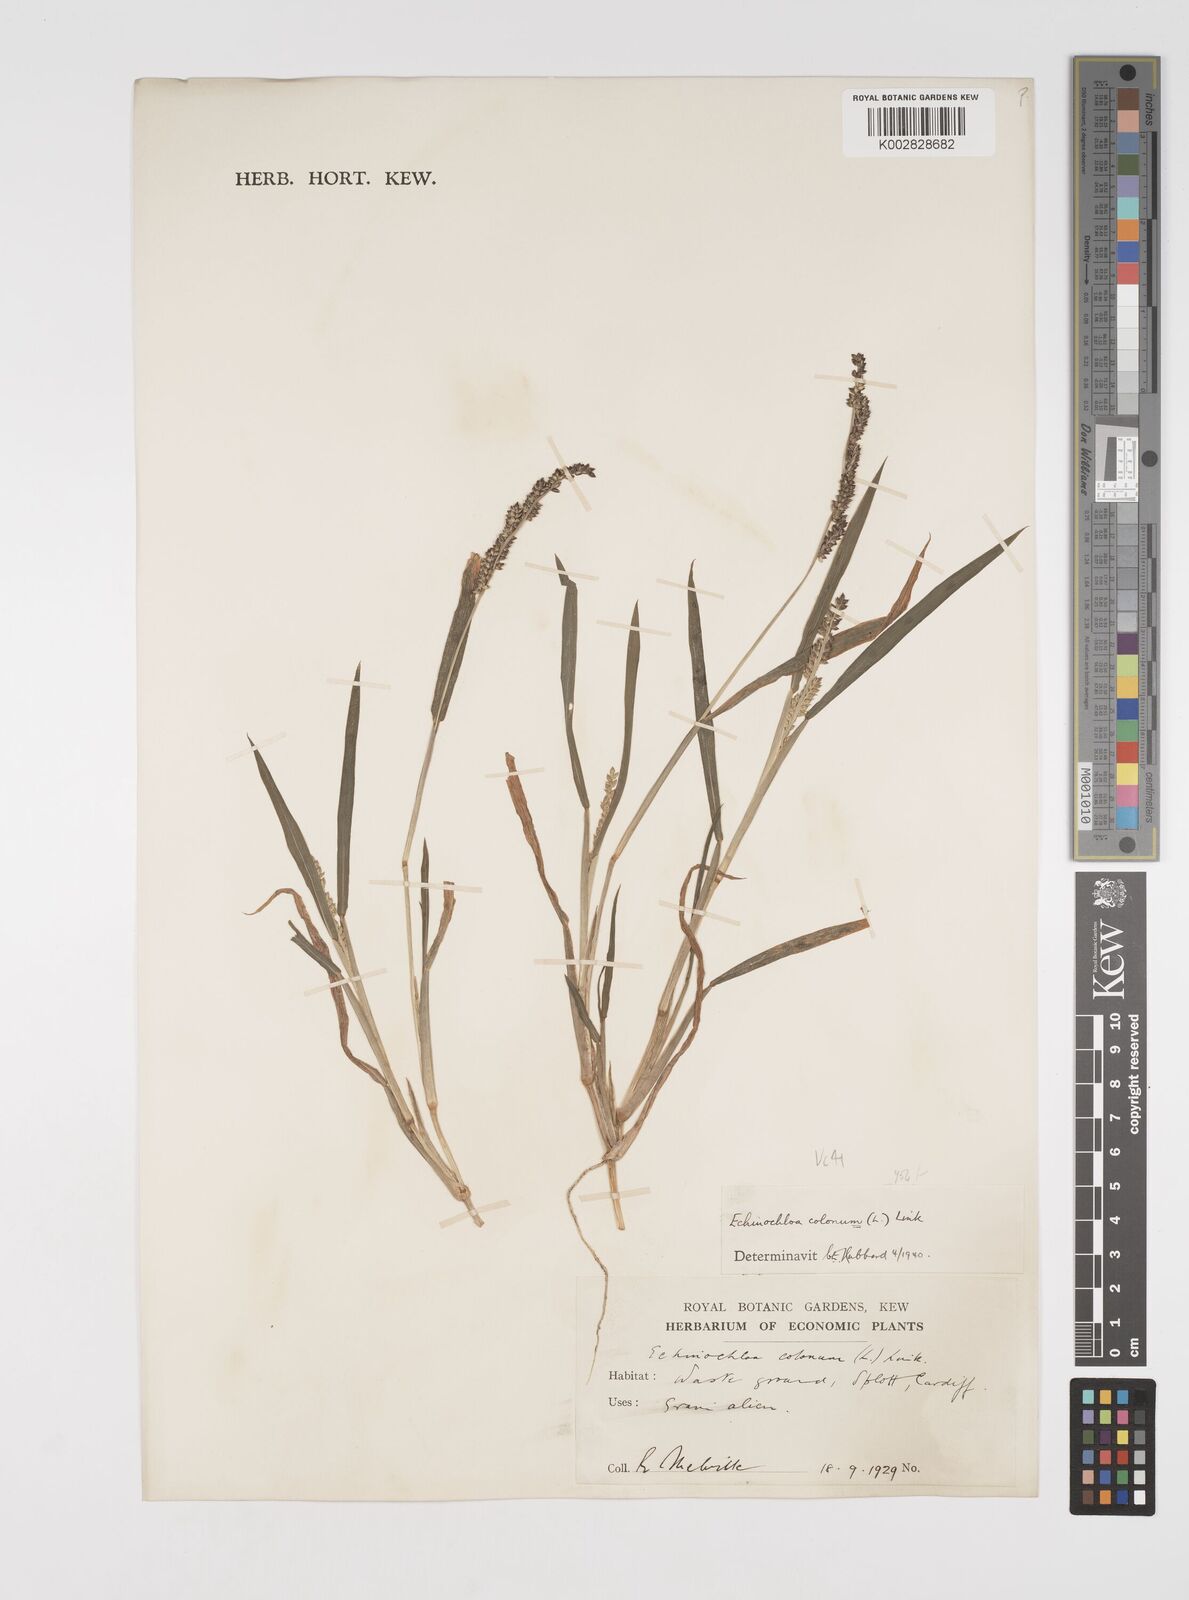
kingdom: Plantae
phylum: Tracheophyta
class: Liliopsida
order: Poales
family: Poaceae
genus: Echinochloa
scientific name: Echinochloa colonum
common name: Jungle rice
